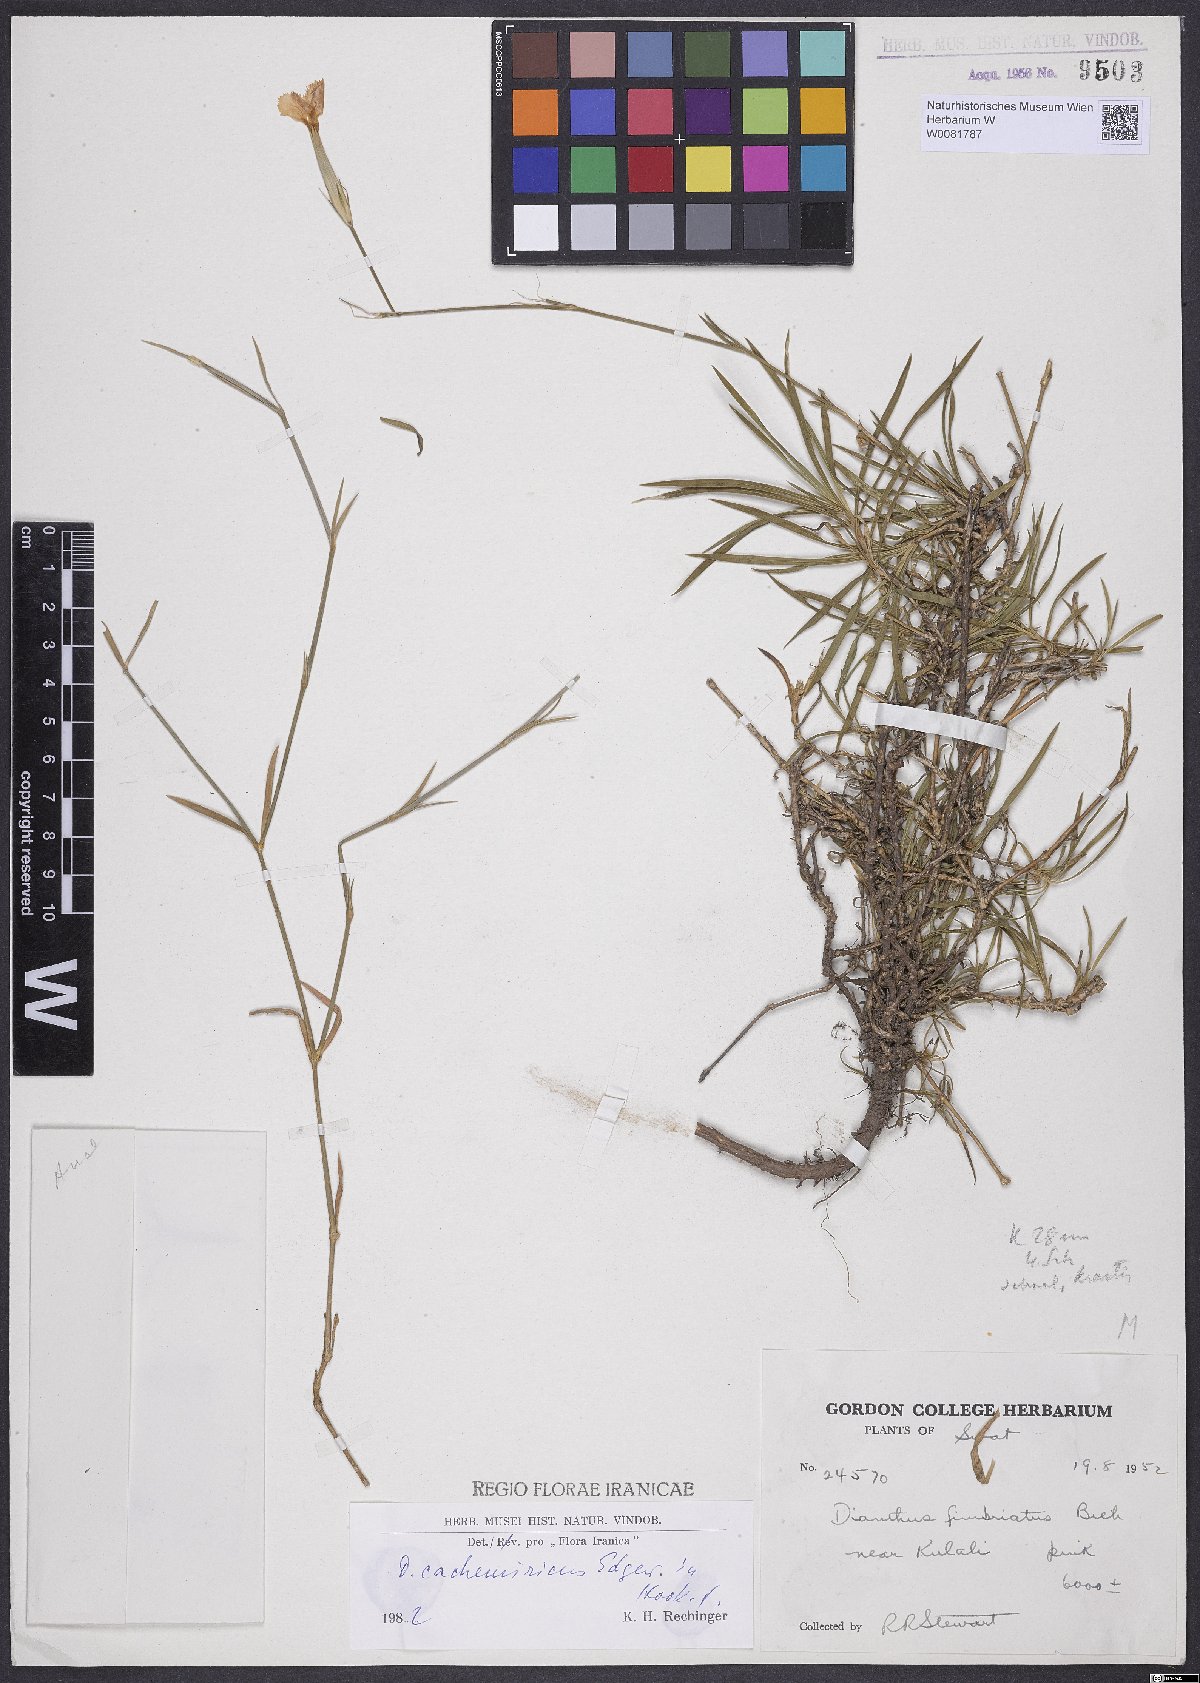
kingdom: Plantae
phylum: Tracheophyta
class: Magnoliopsida
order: Caryophyllales
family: Caryophyllaceae
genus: Dianthus
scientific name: Dianthus cachemiricus
